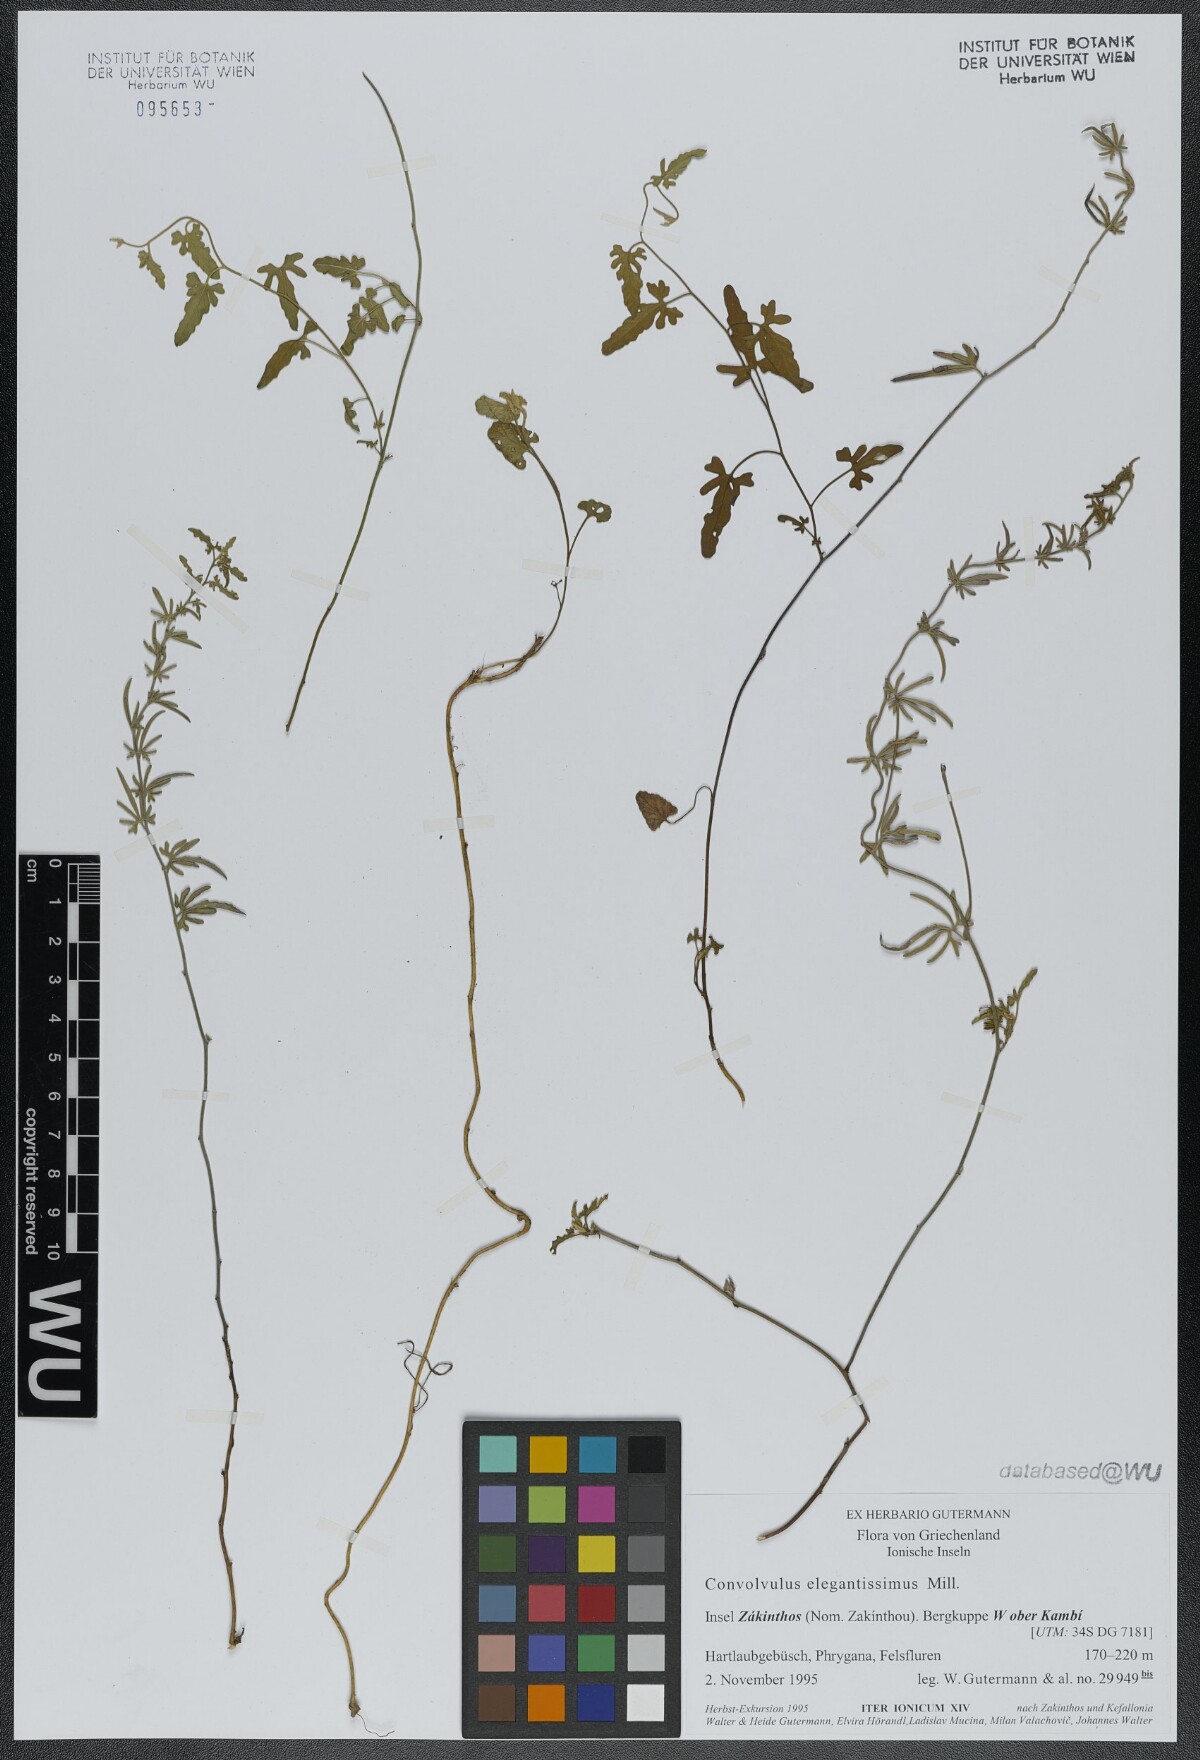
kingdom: Plantae
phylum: Tracheophyta
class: Magnoliopsida
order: Solanales
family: Convolvulaceae
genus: Convolvulus
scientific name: Convolvulus elegantissimus
